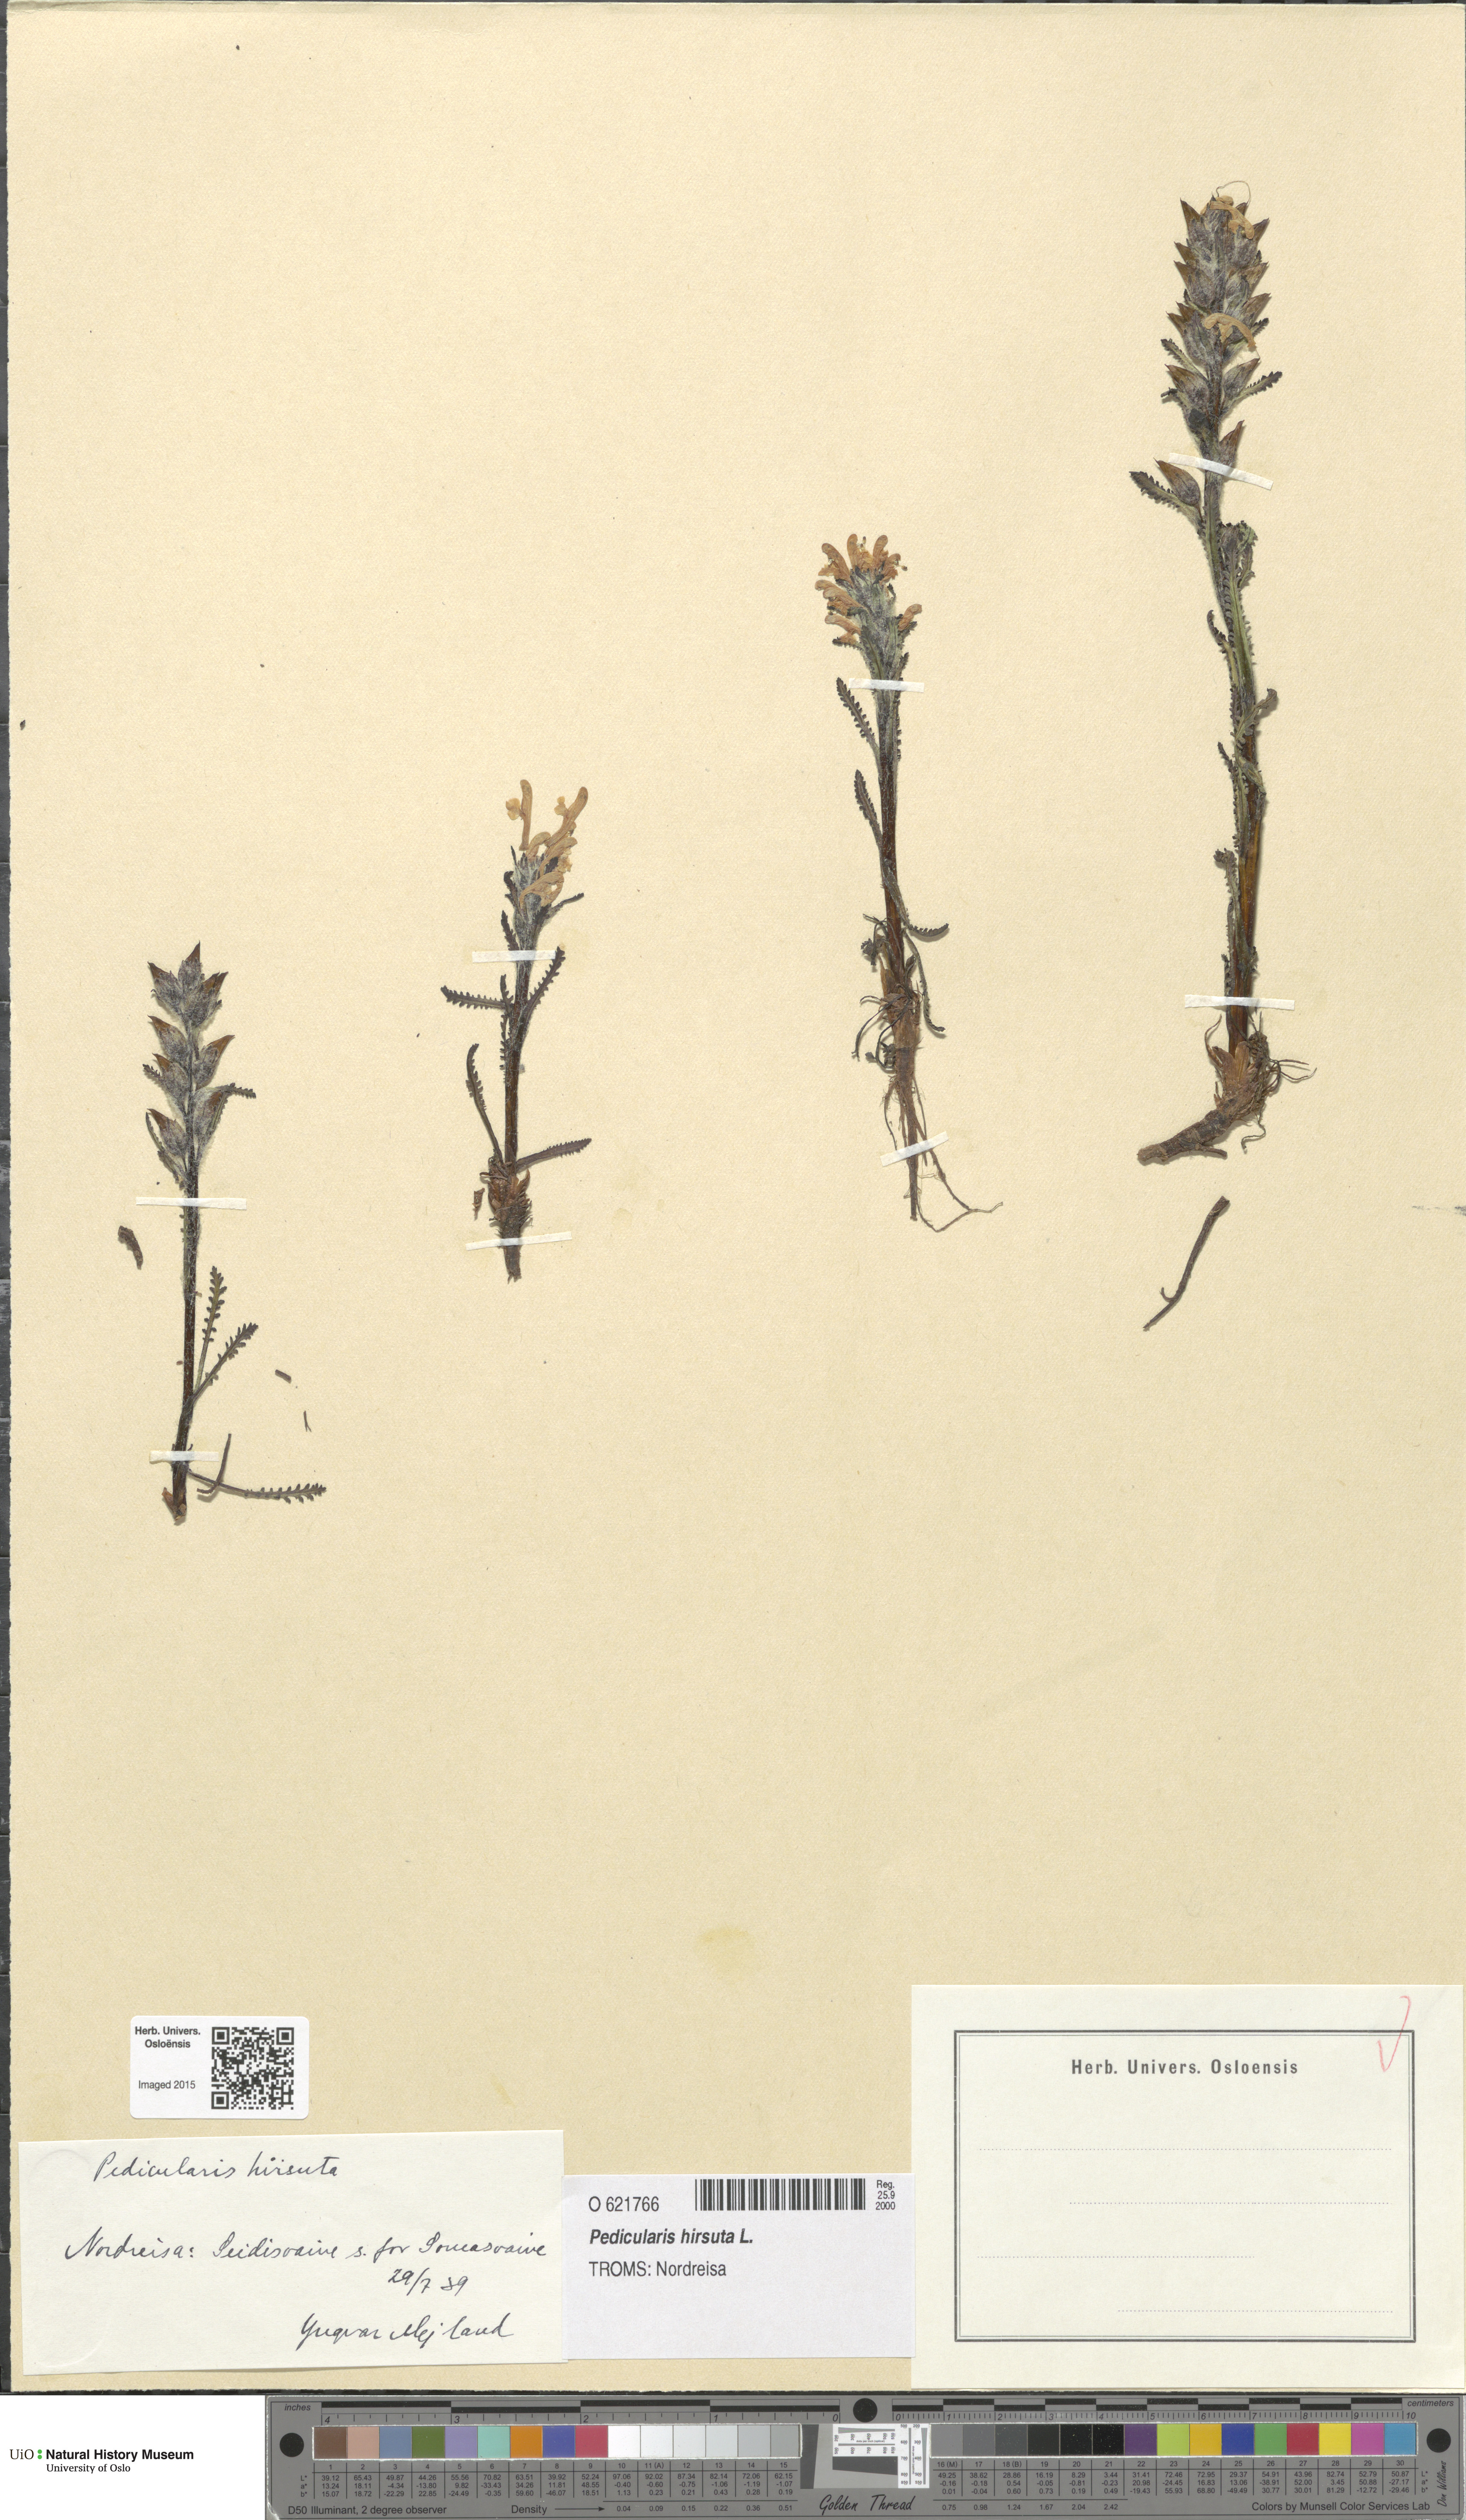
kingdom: Plantae
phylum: Tracheophyta
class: Magnoliopsida
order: Lamiales
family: Orobanchaceae
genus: Pedicularis
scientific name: Pedicularis hirsuta
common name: Hairy lousewort
